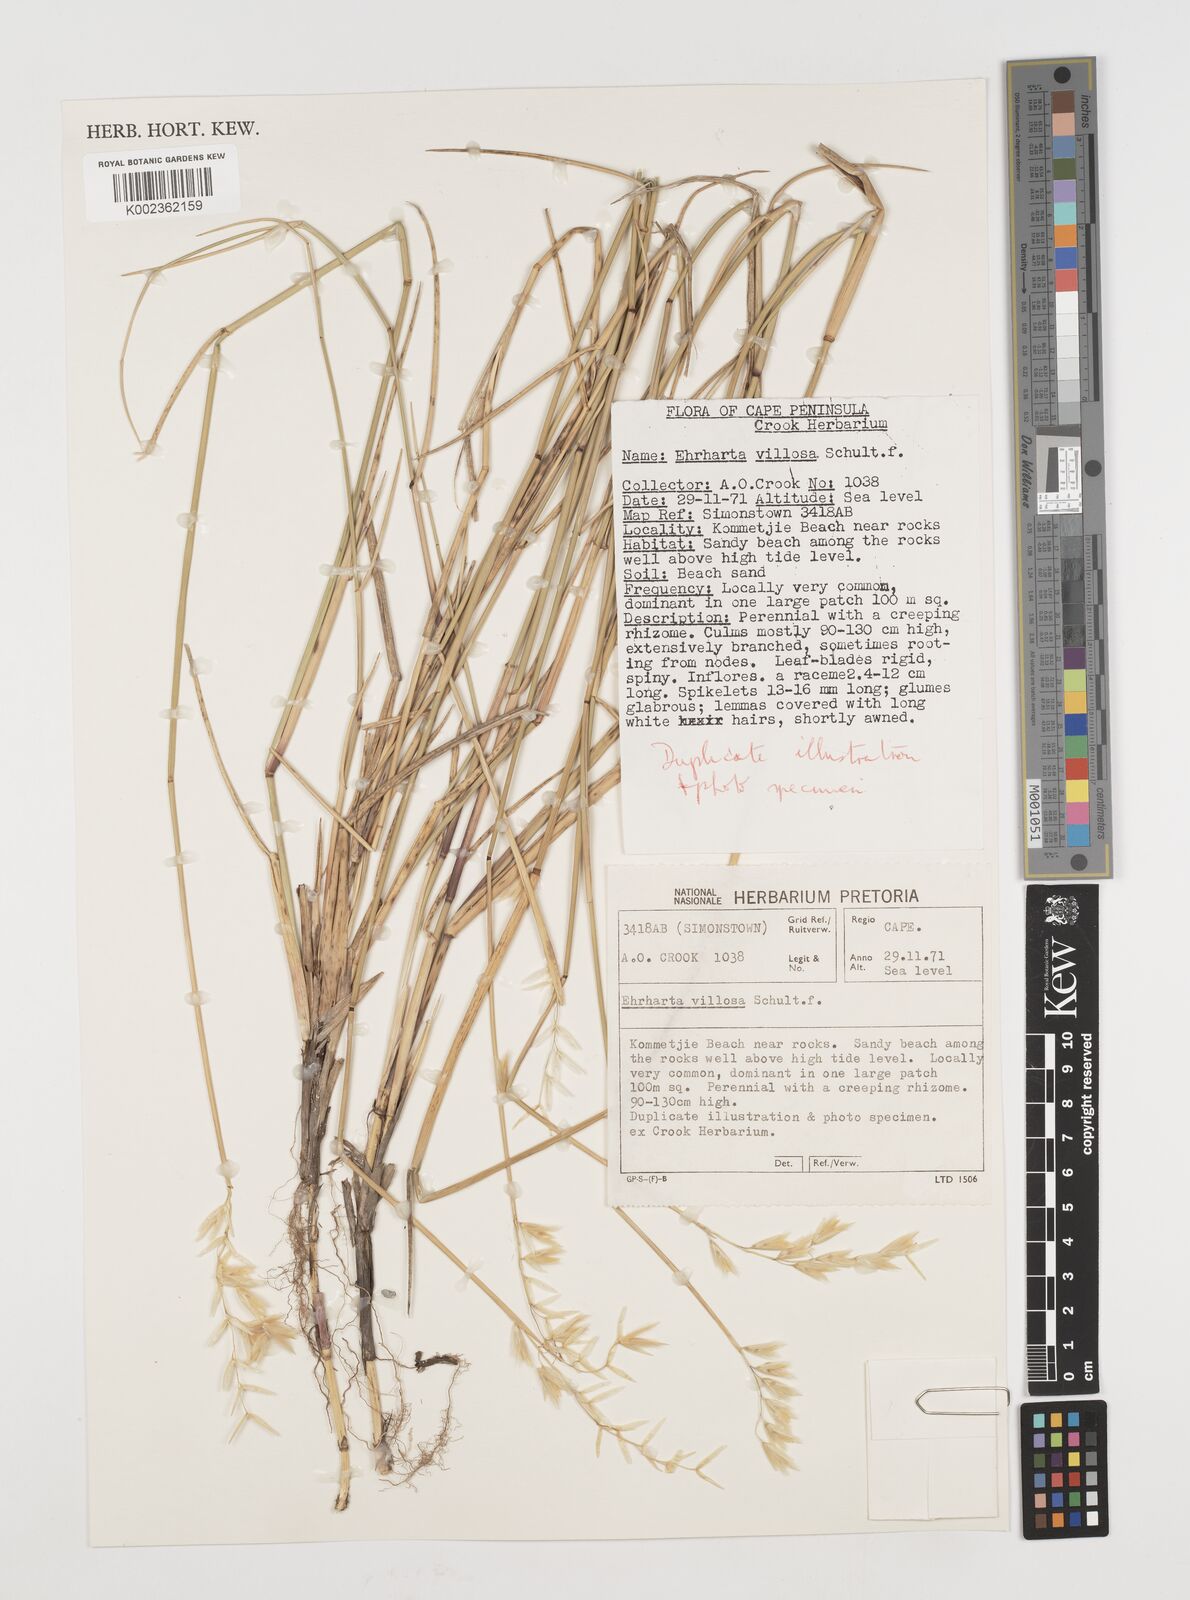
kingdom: Plantae
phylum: Tracheophyta
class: Liliopsida
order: Poales
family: Poaceae
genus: Ehrharta
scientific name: Ehrharta villosa
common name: Pyp grass
